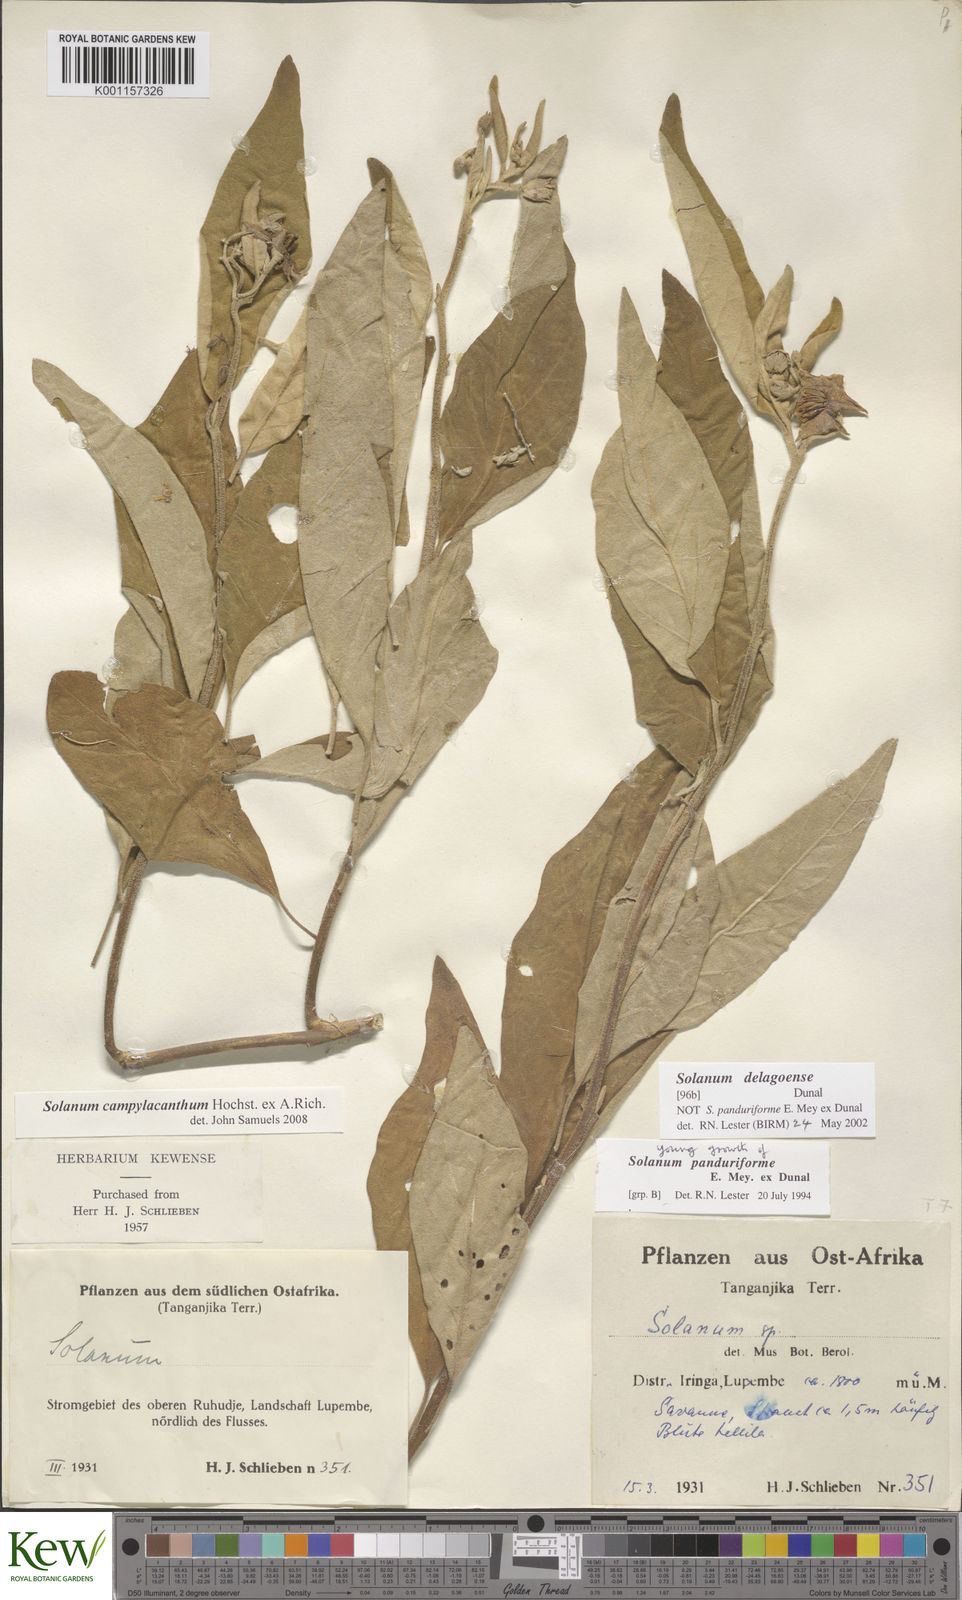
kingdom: Plantae
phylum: Tracheophyta
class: Magnoliopsida
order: Solanales
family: Solanaceae
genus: Solanum
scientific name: Solanum campylacanthum
